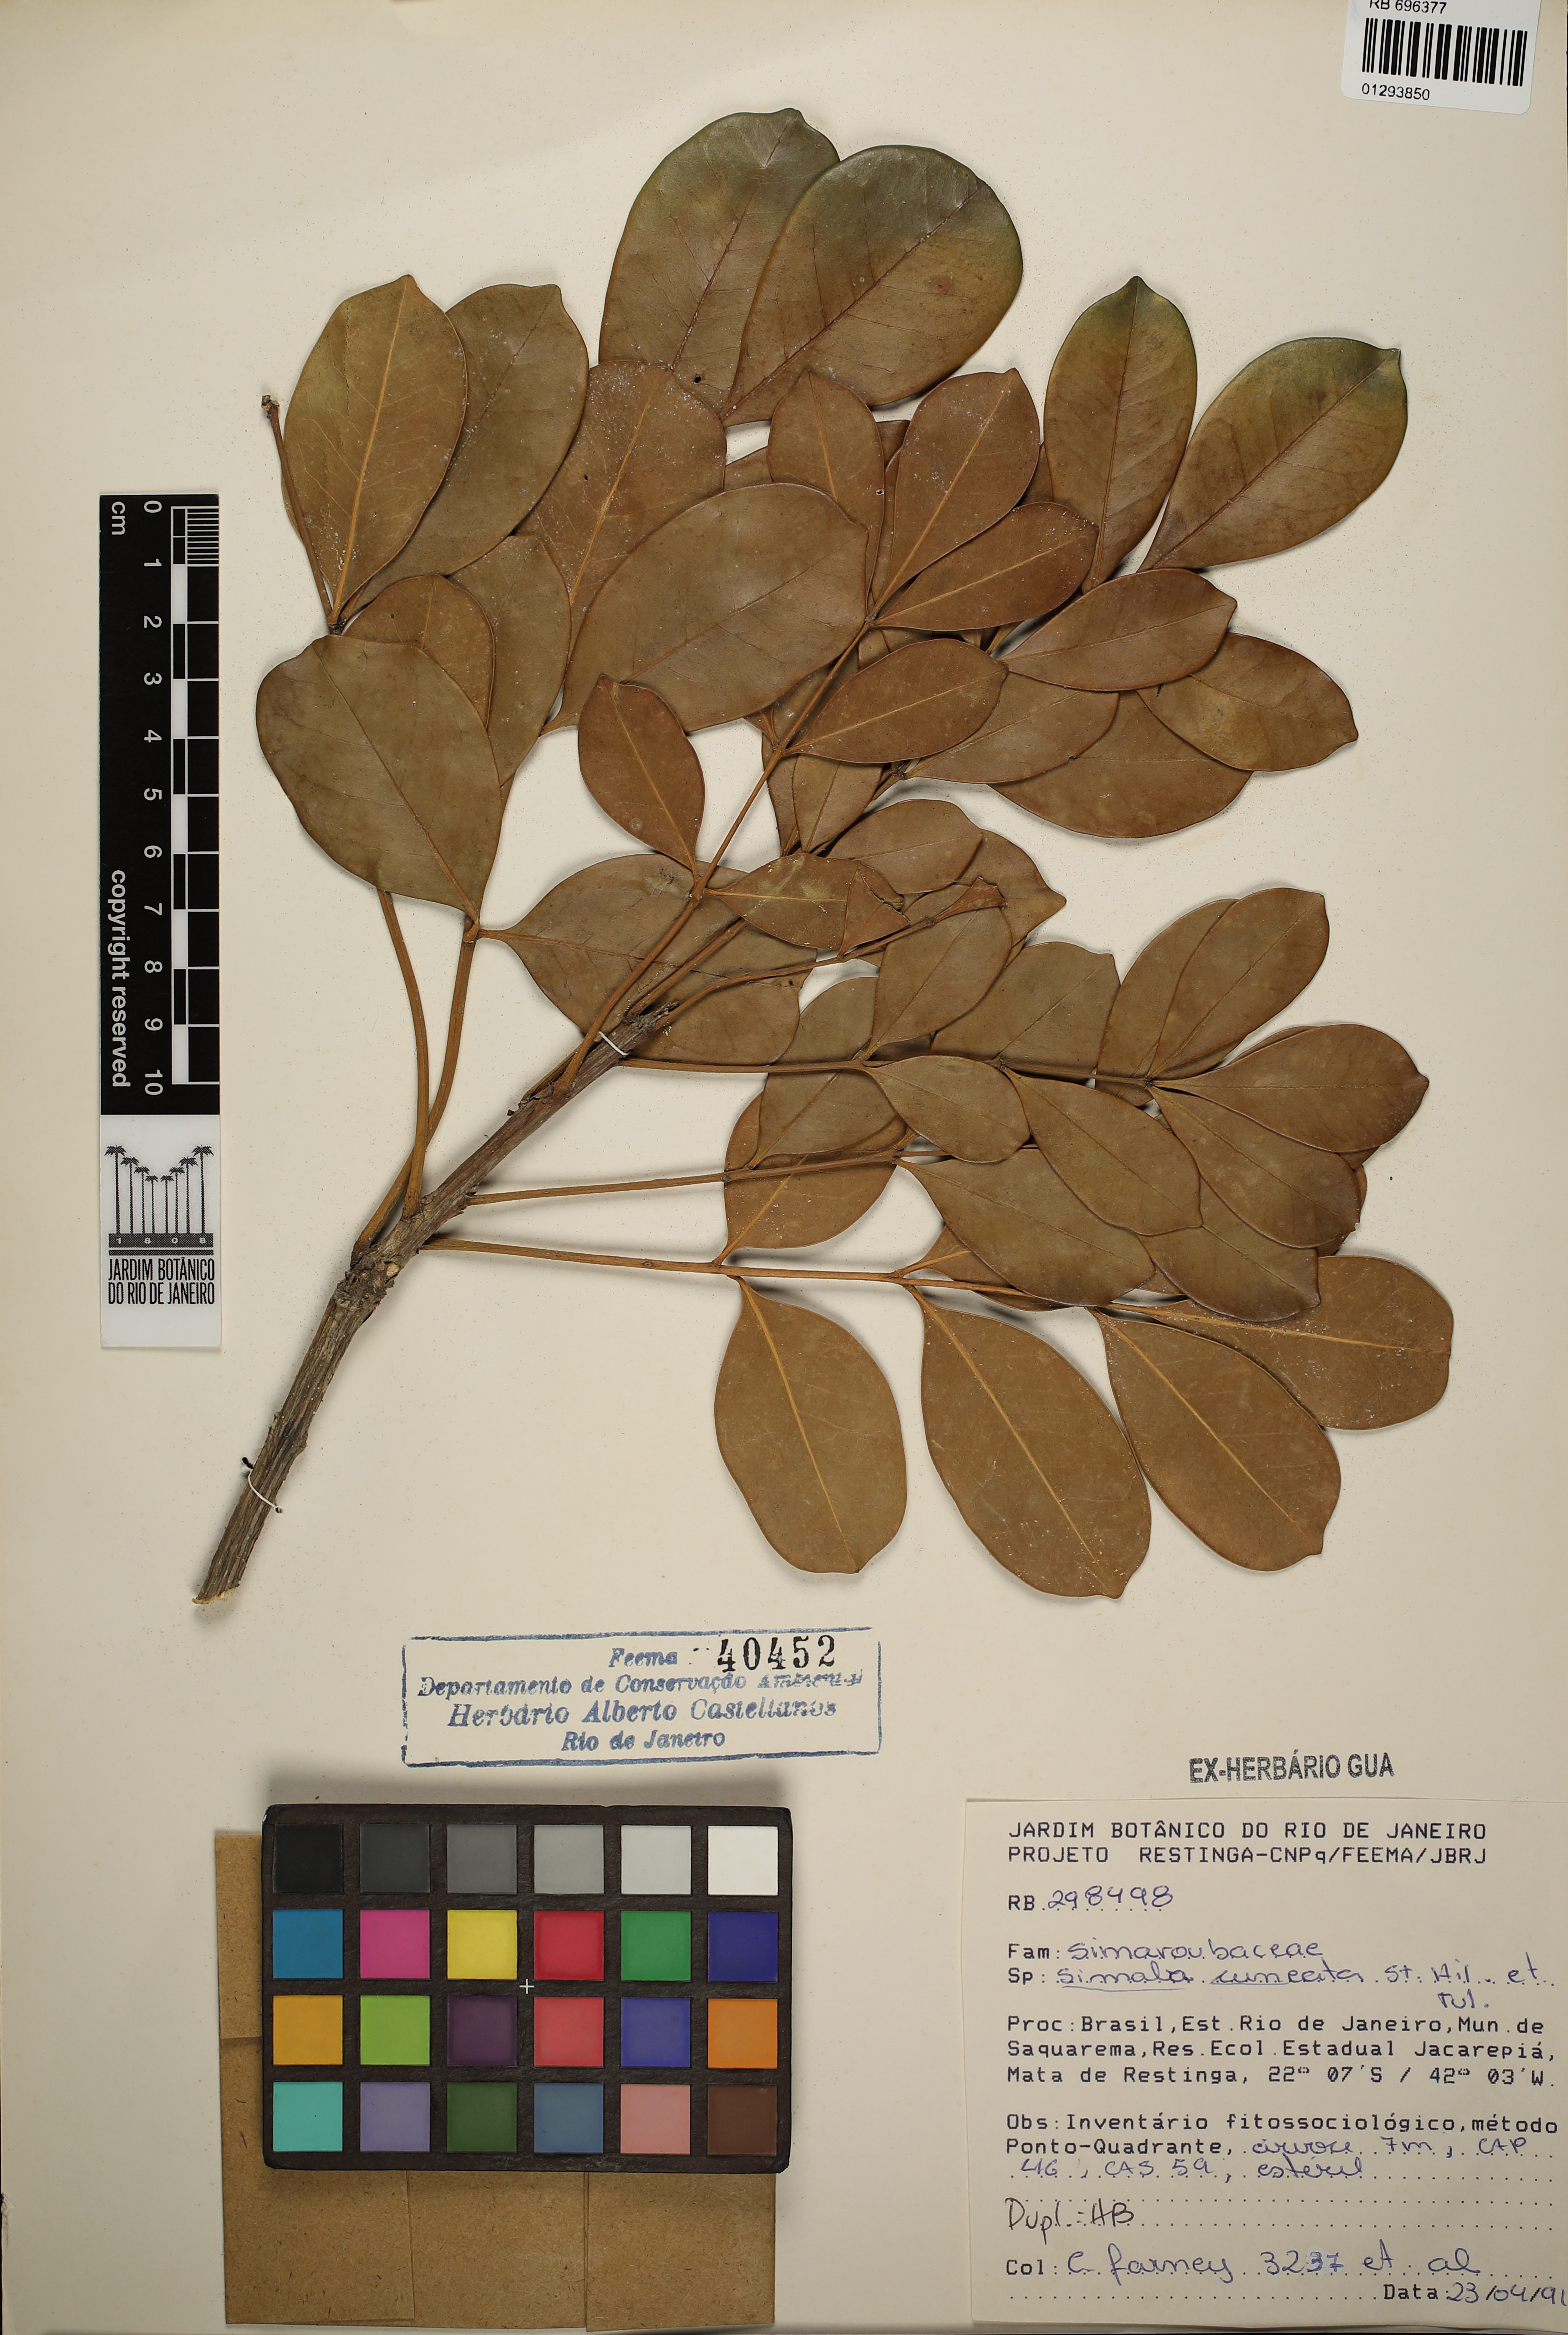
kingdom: Plantae
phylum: Tracheophyta
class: Magnoliopsida
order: Sapindales
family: Simaroubaceae
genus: Homalolepis
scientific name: Homalolepis cuneata
